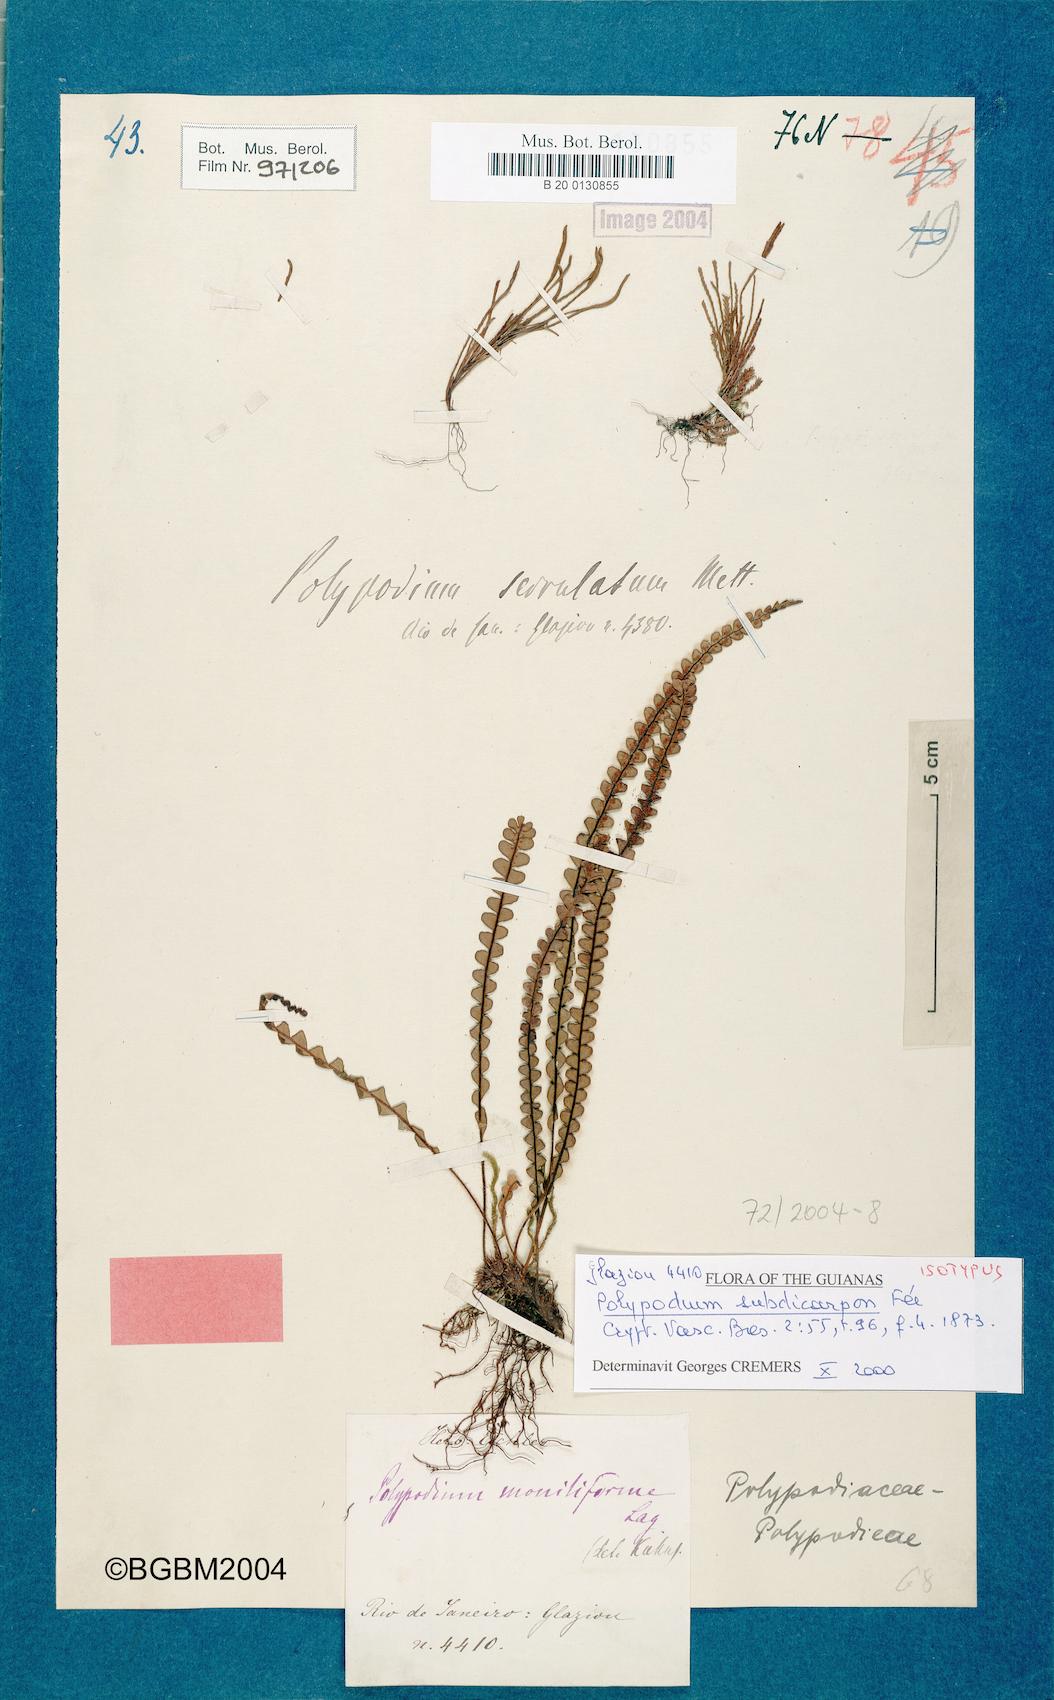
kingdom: Plantae
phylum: Tracheophyta
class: Polypodiopsida
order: Polypodiales
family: Polypodiaceae
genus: Melpomene
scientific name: Melpomene moniliformis
